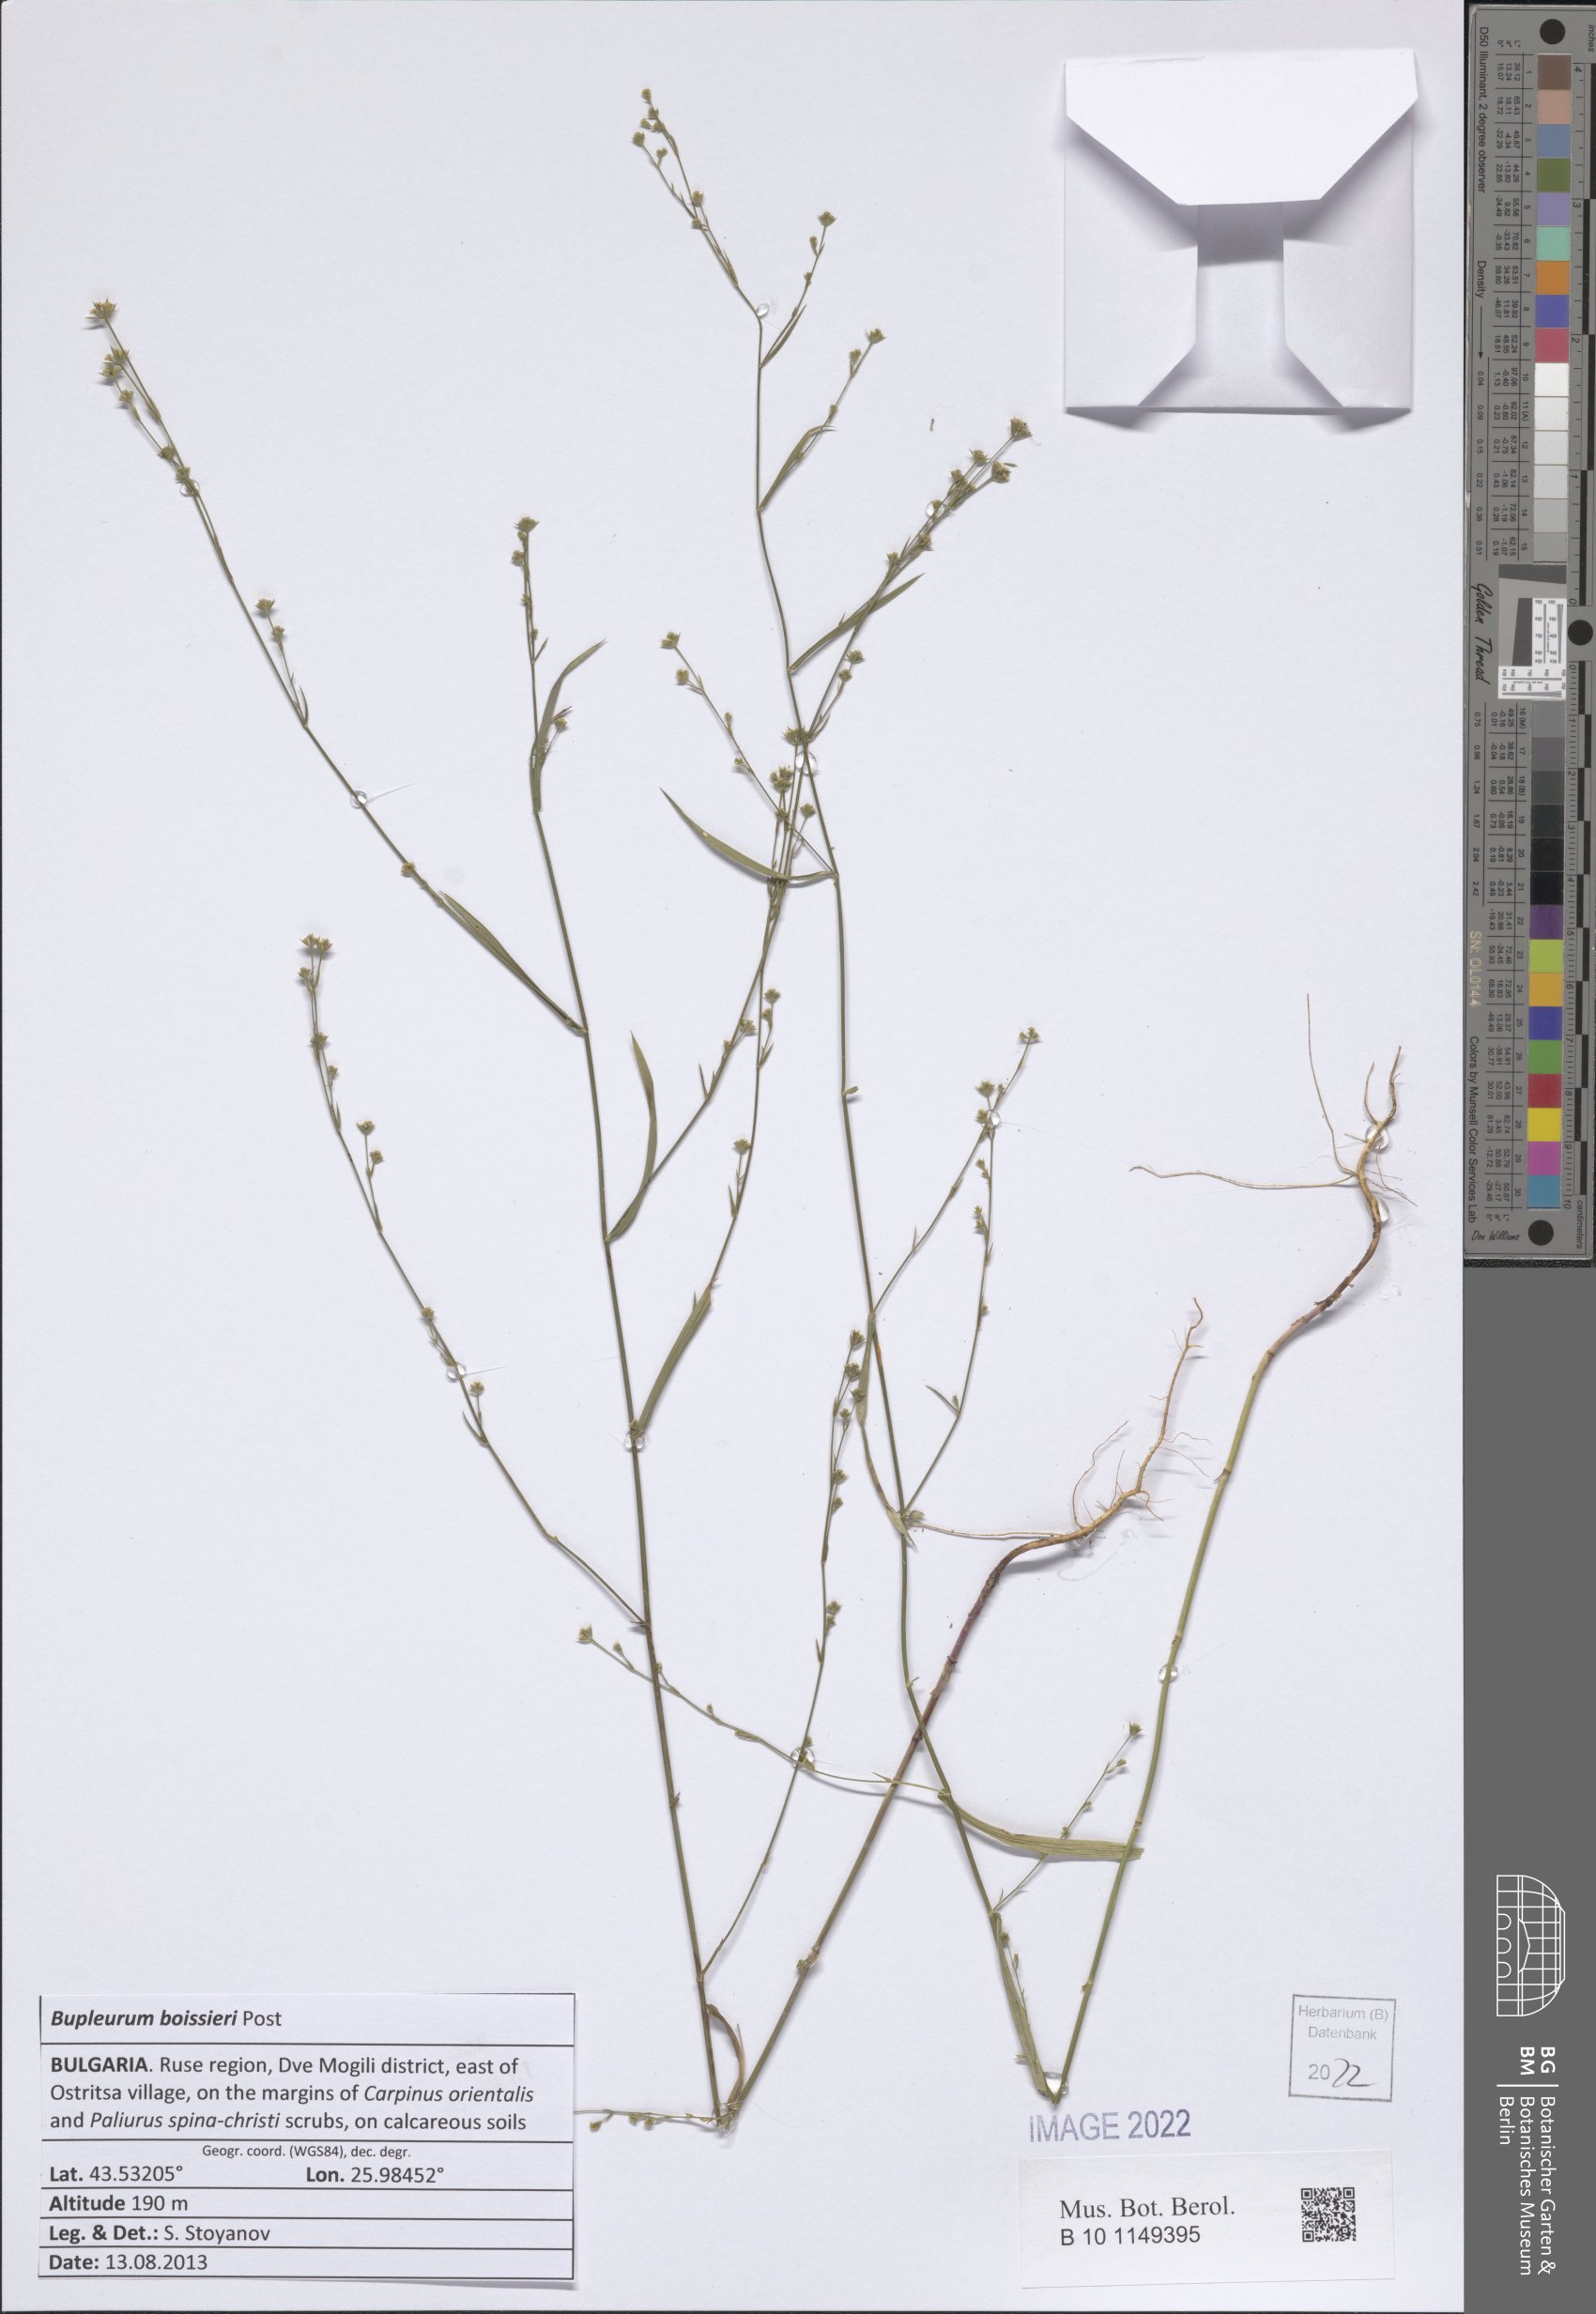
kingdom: Plantae
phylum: Tracheophyta
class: Magnoliopsida
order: Apiales
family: Apiaceae
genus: Bupleurum
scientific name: Bupleurum boissieri
